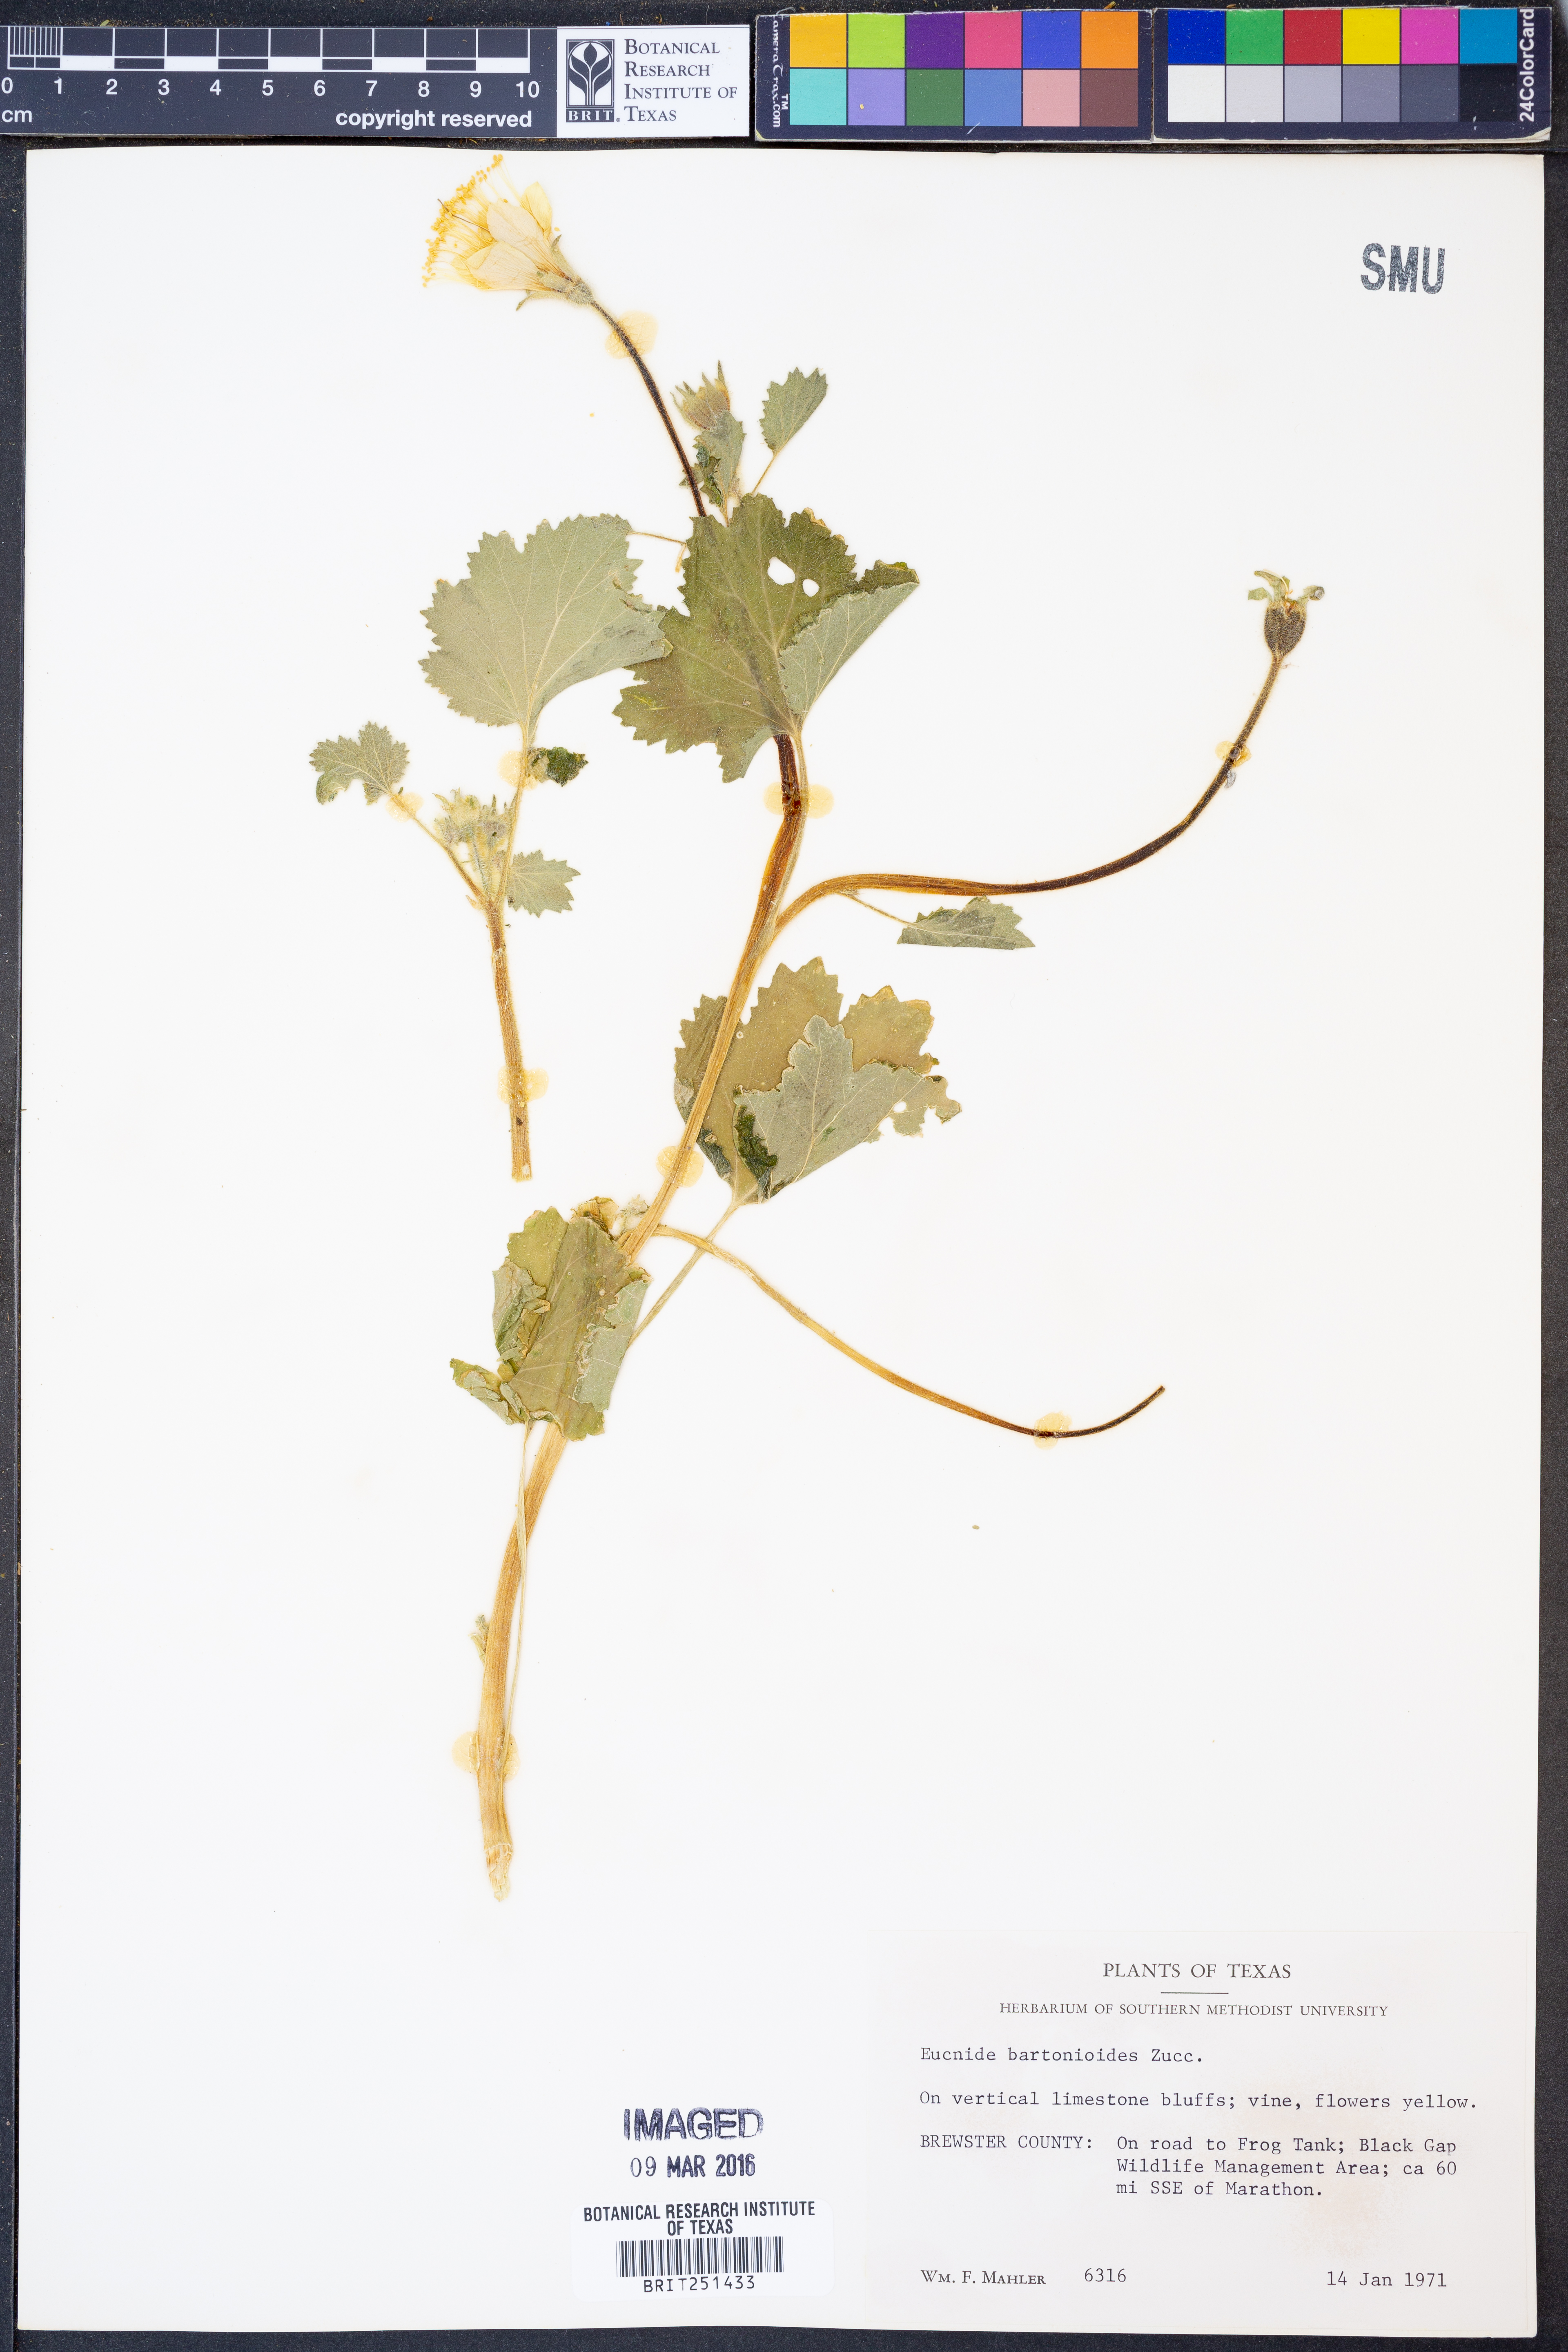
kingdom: Plantae
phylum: Tracheophyta
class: Magnoliopsida
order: Cornales
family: Loasaceae
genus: Eucnide
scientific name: Eucnide bartonioides
